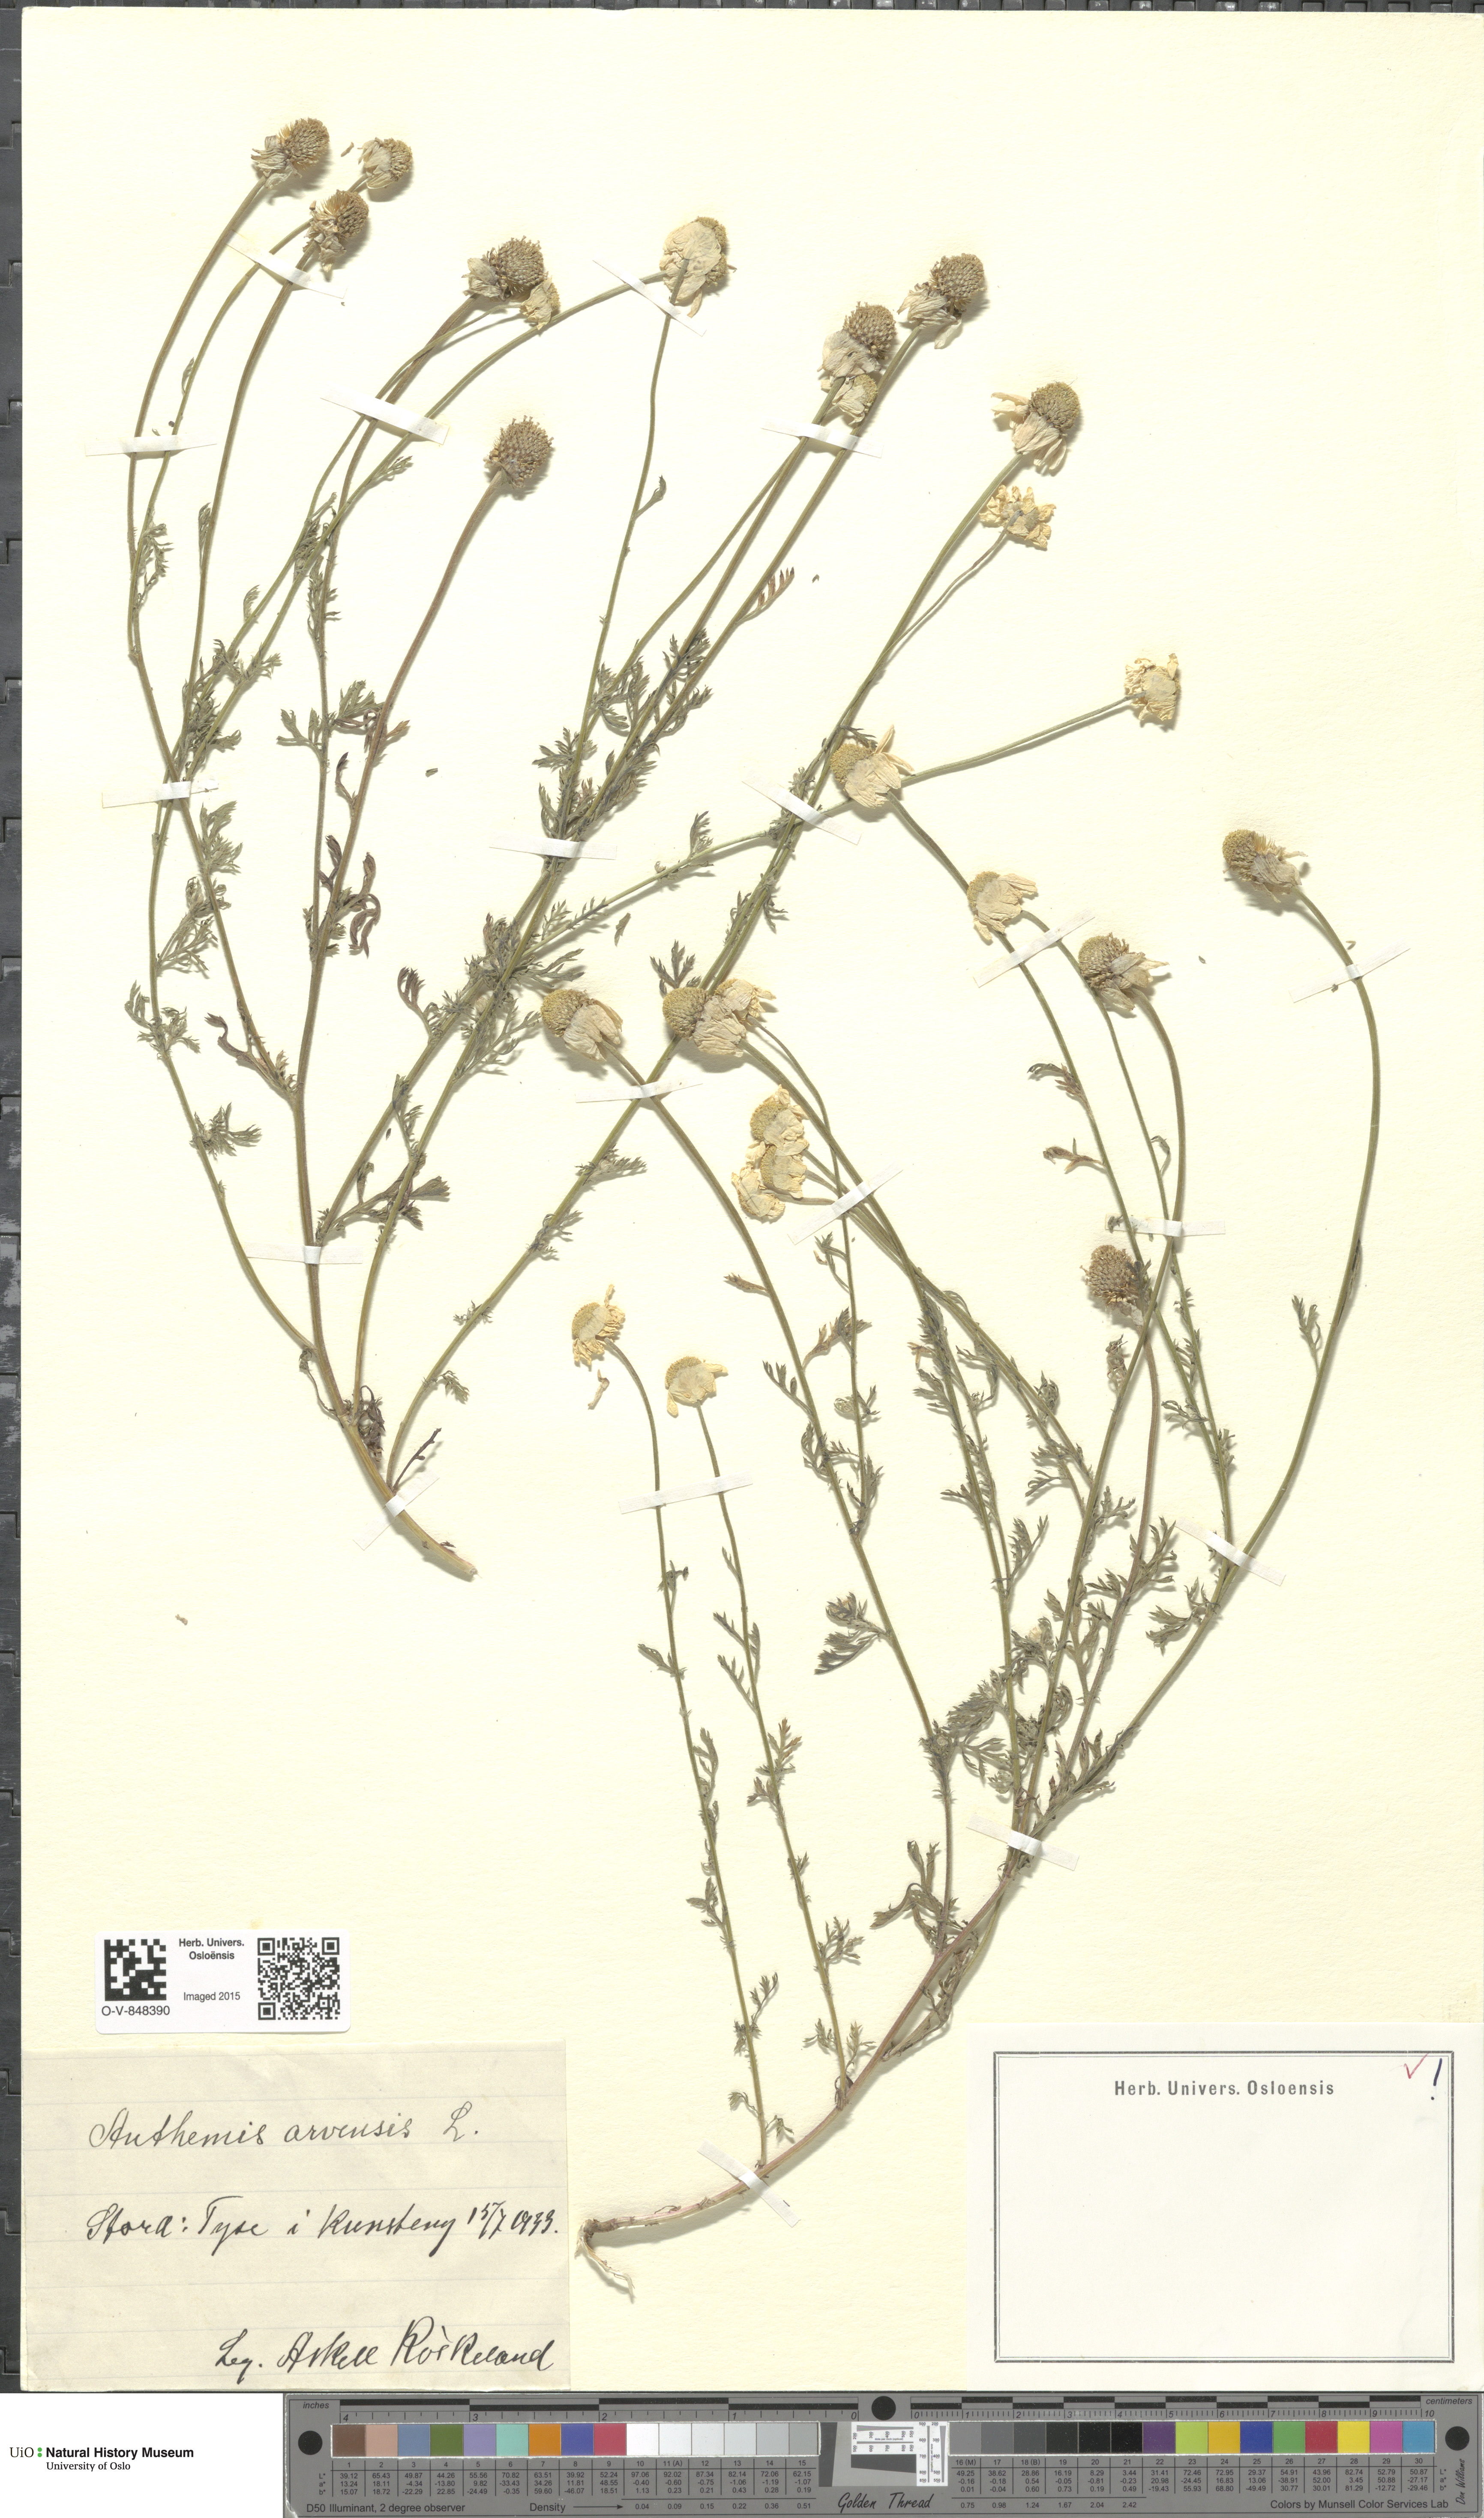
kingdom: Plantae
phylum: Tracheophyta
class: Magnoliopsida
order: Asterales
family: Asteraceae
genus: Anthemis
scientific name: Anthemis arvensis
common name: Corn chamomile
